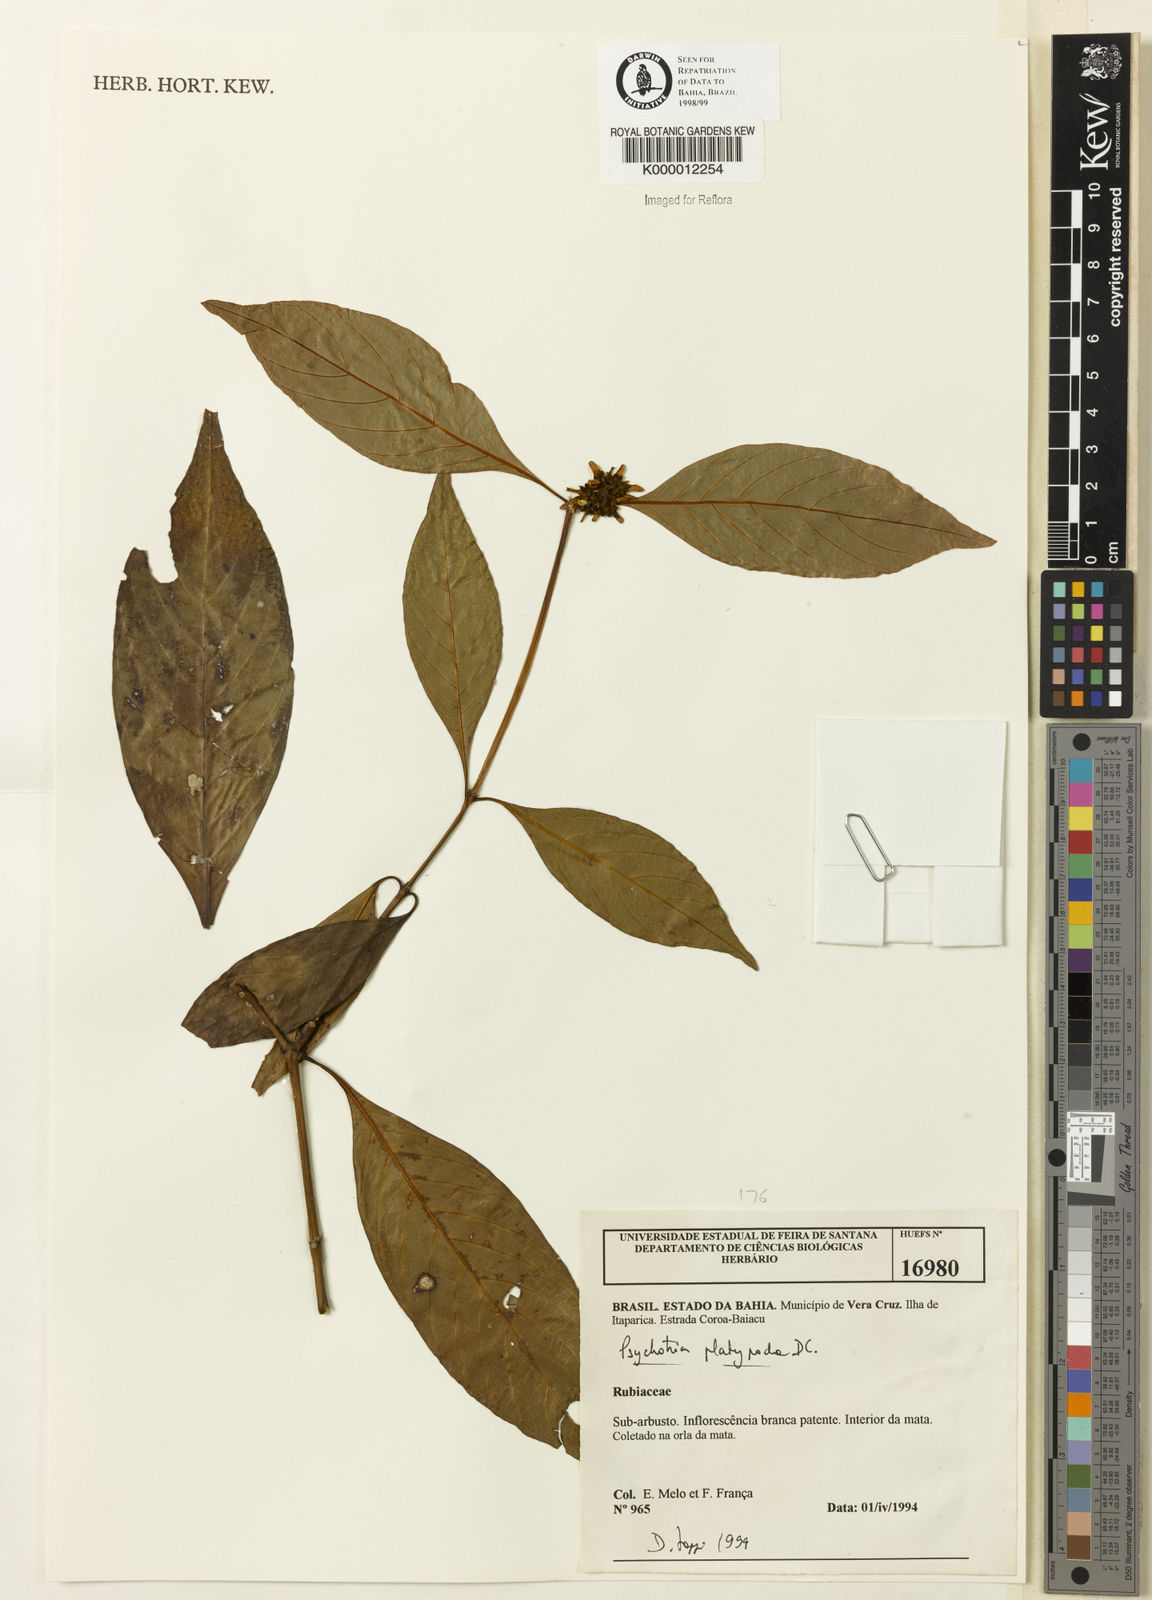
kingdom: Plantae
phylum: Tracheophyta
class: Magnoliopsida
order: Gentianales
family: Rubiaceae
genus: Palicourea
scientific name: Palicourea dichotoma
